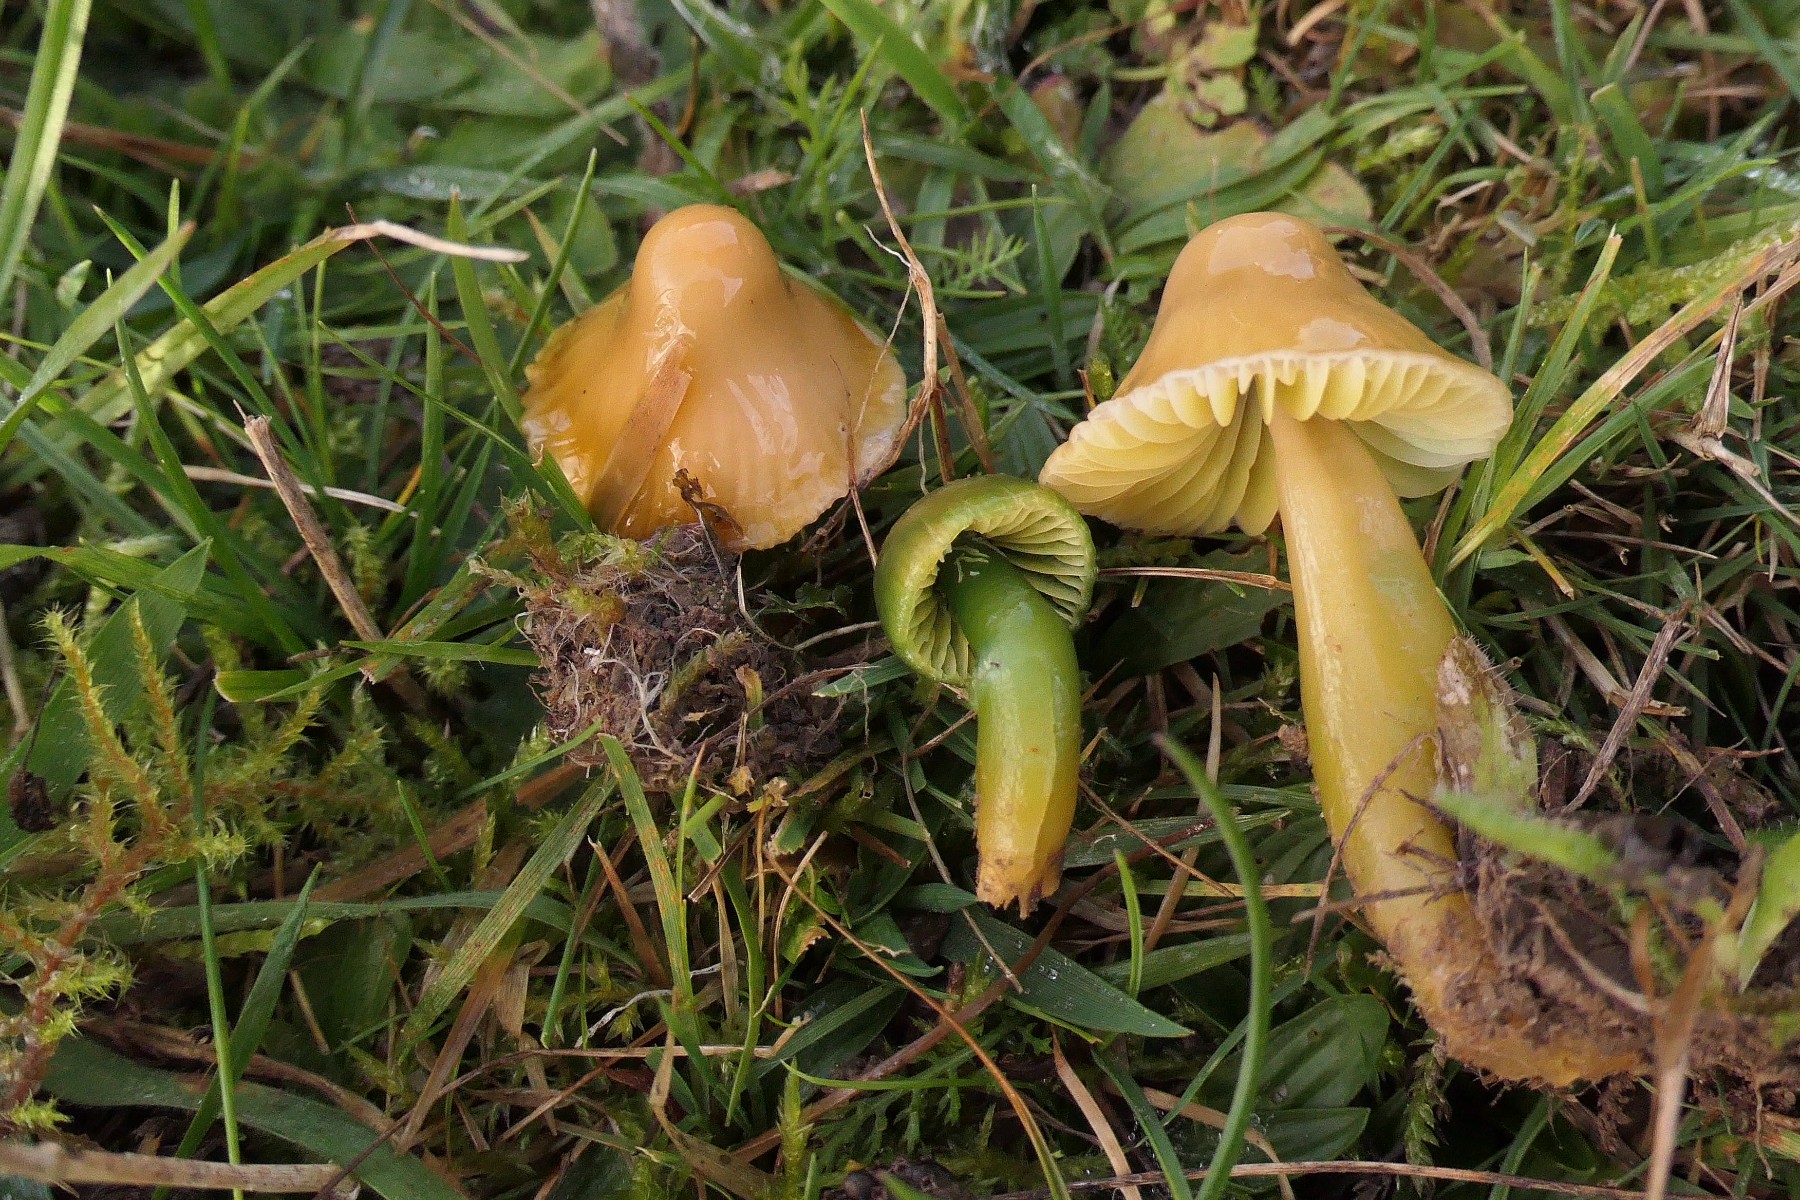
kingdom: Fungi
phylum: Basidiomycota
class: Agaricomycetes
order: Agaricales
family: Hygrophoraceae
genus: Gliophorus
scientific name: Gliophorus psittacinus
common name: papegøje-vokshat
